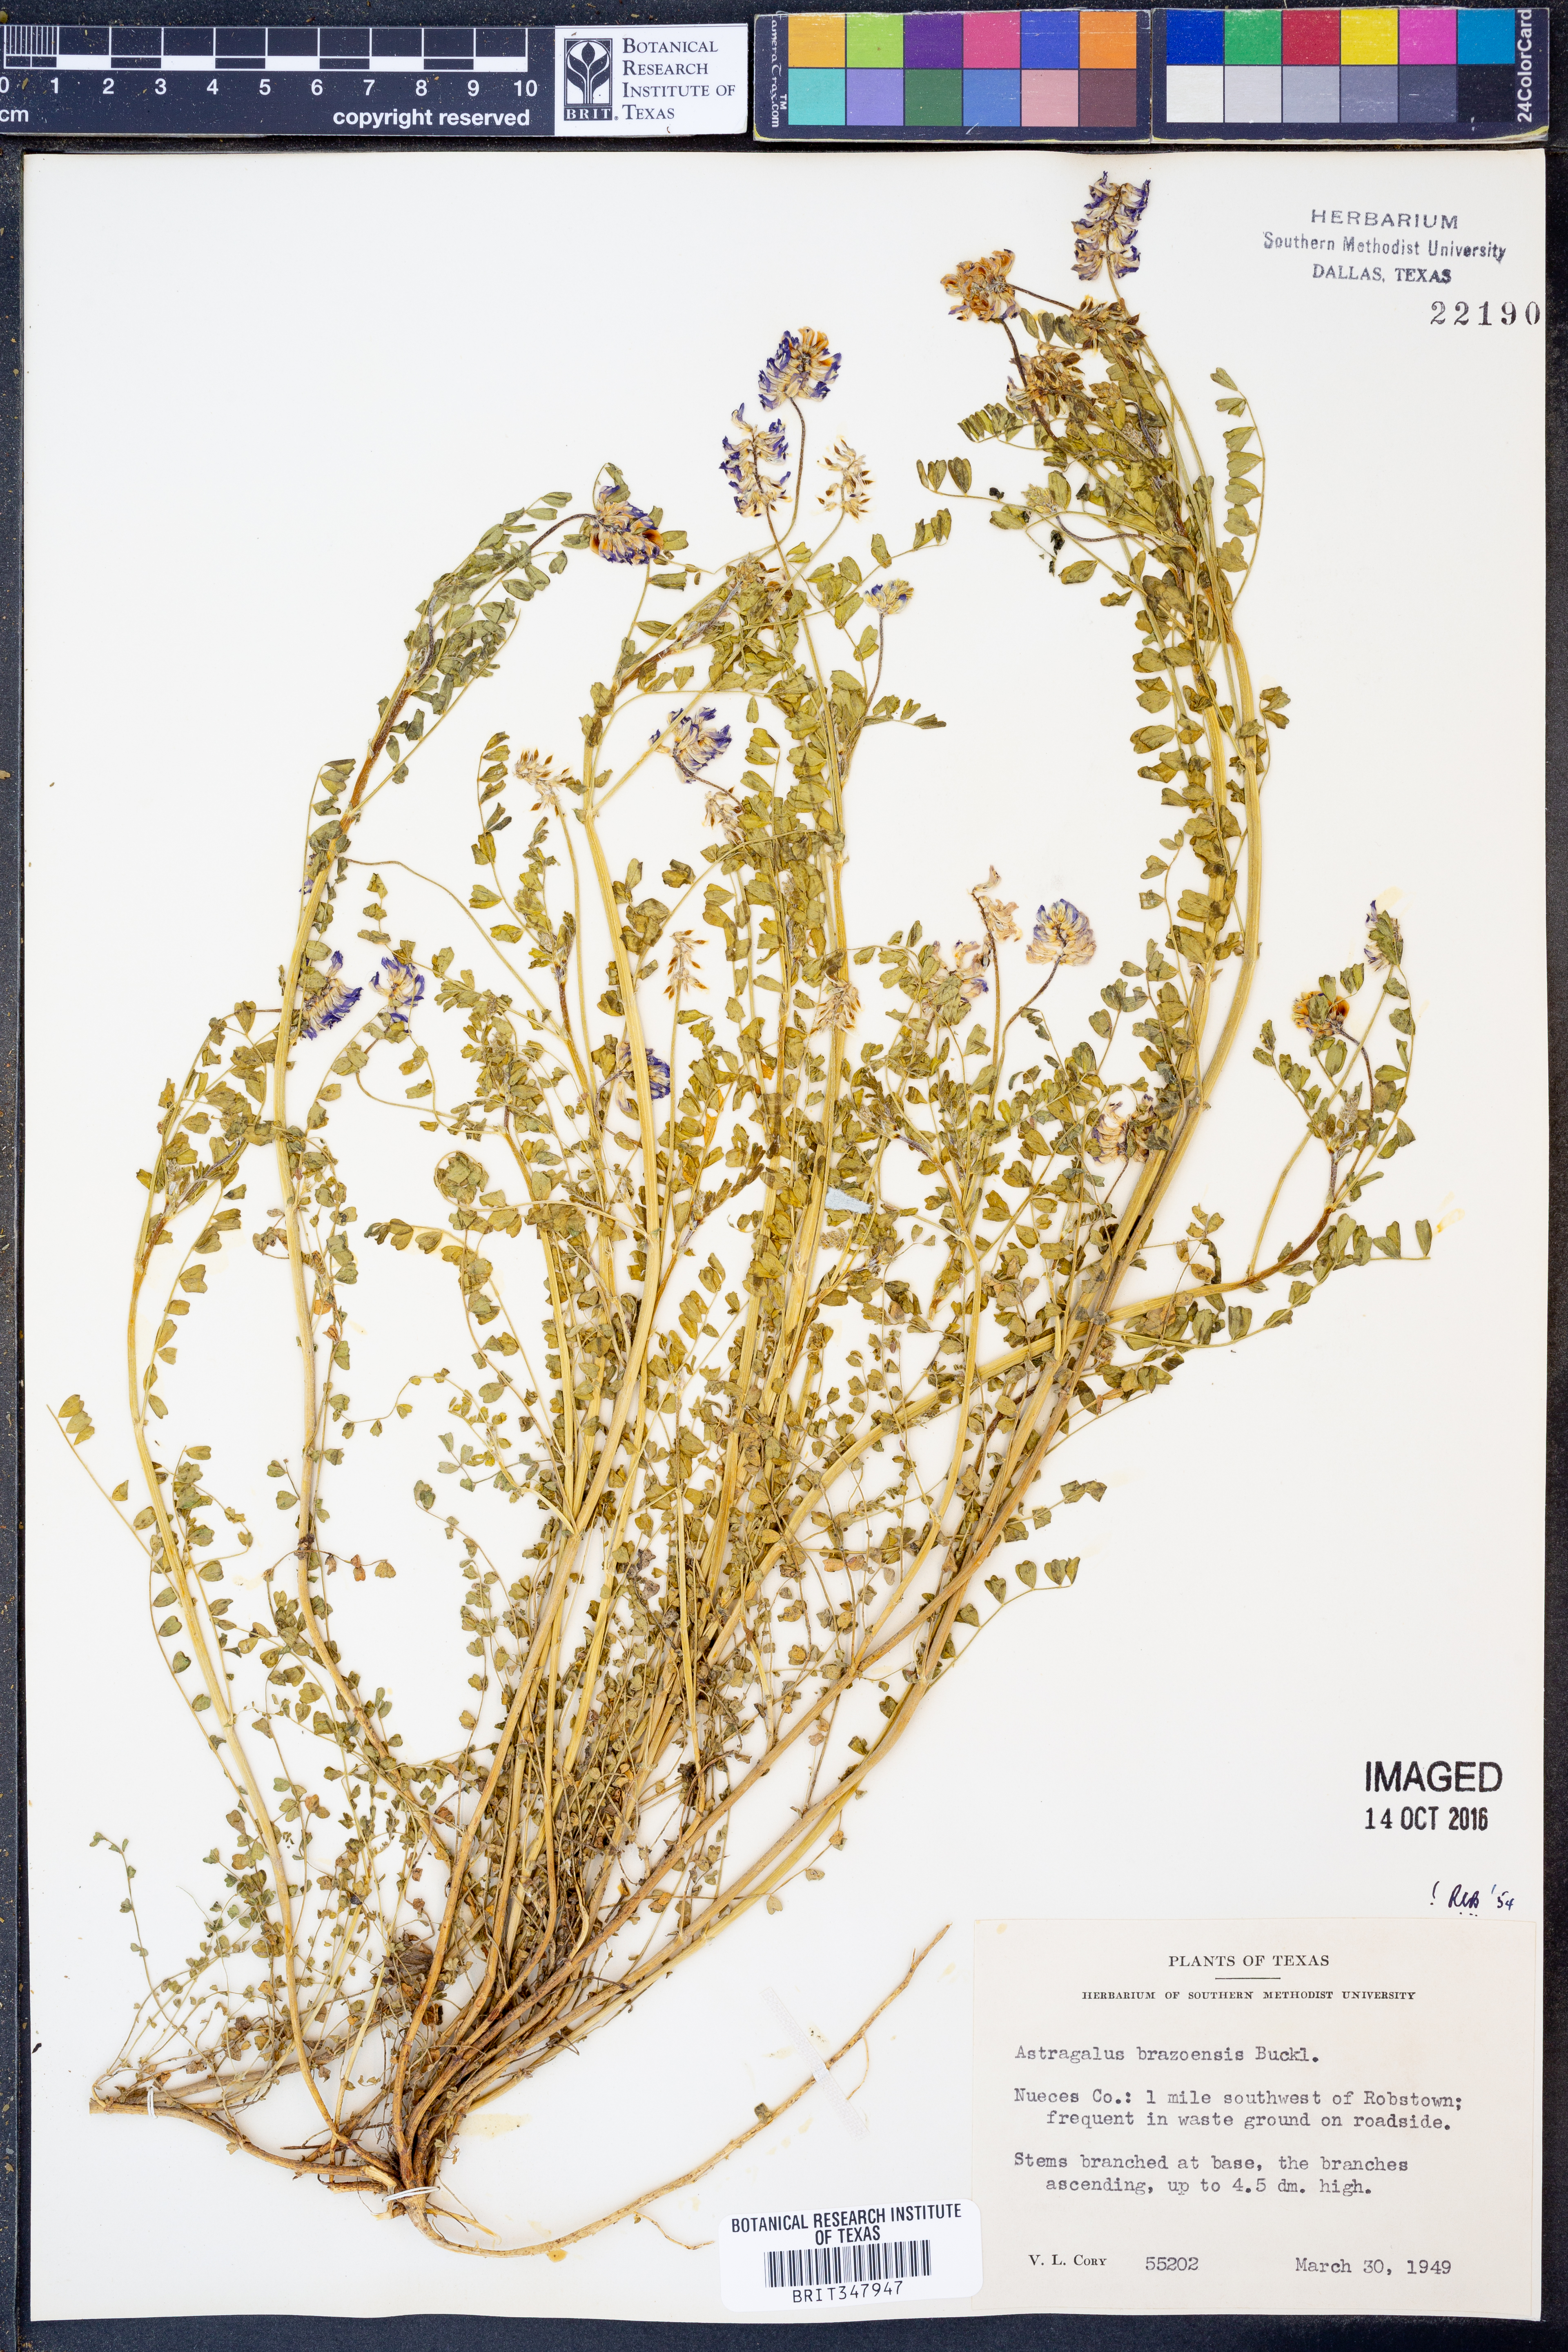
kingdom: Plantae
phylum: Tracheophyta
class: Magnoliopsida
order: Fabales
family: Fabaceae
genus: Astragalus
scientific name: Astragalus brazoensis
